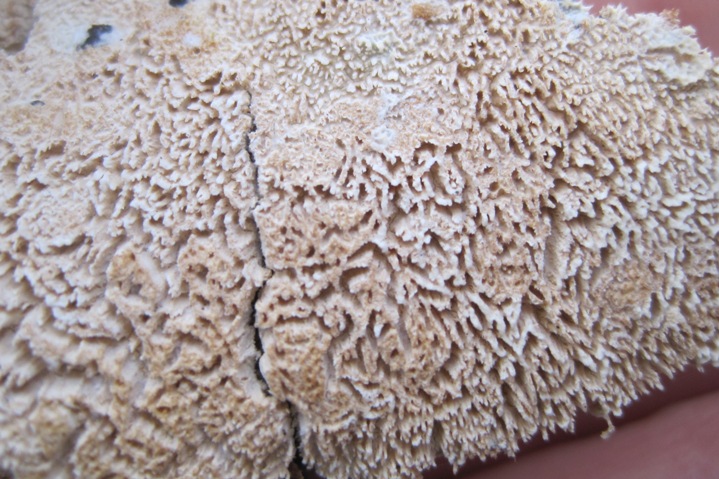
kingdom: Fungi
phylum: Basidiomycota
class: Agaricomycetes
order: Hymenochaetales
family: Schizoporaceae
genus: Schizopora
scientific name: Schizopora paradoxa
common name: hvid tandsvamp
